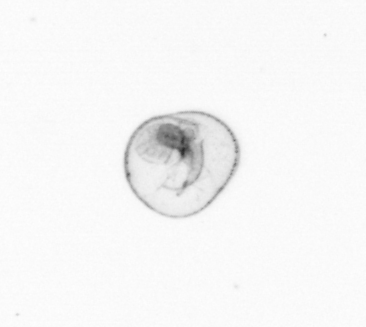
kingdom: Chromista
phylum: Myzozoa
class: Dinophyceae
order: Noctilucales
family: Noctilucaceae
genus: Noctiluca
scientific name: Noctiluca scintillans
